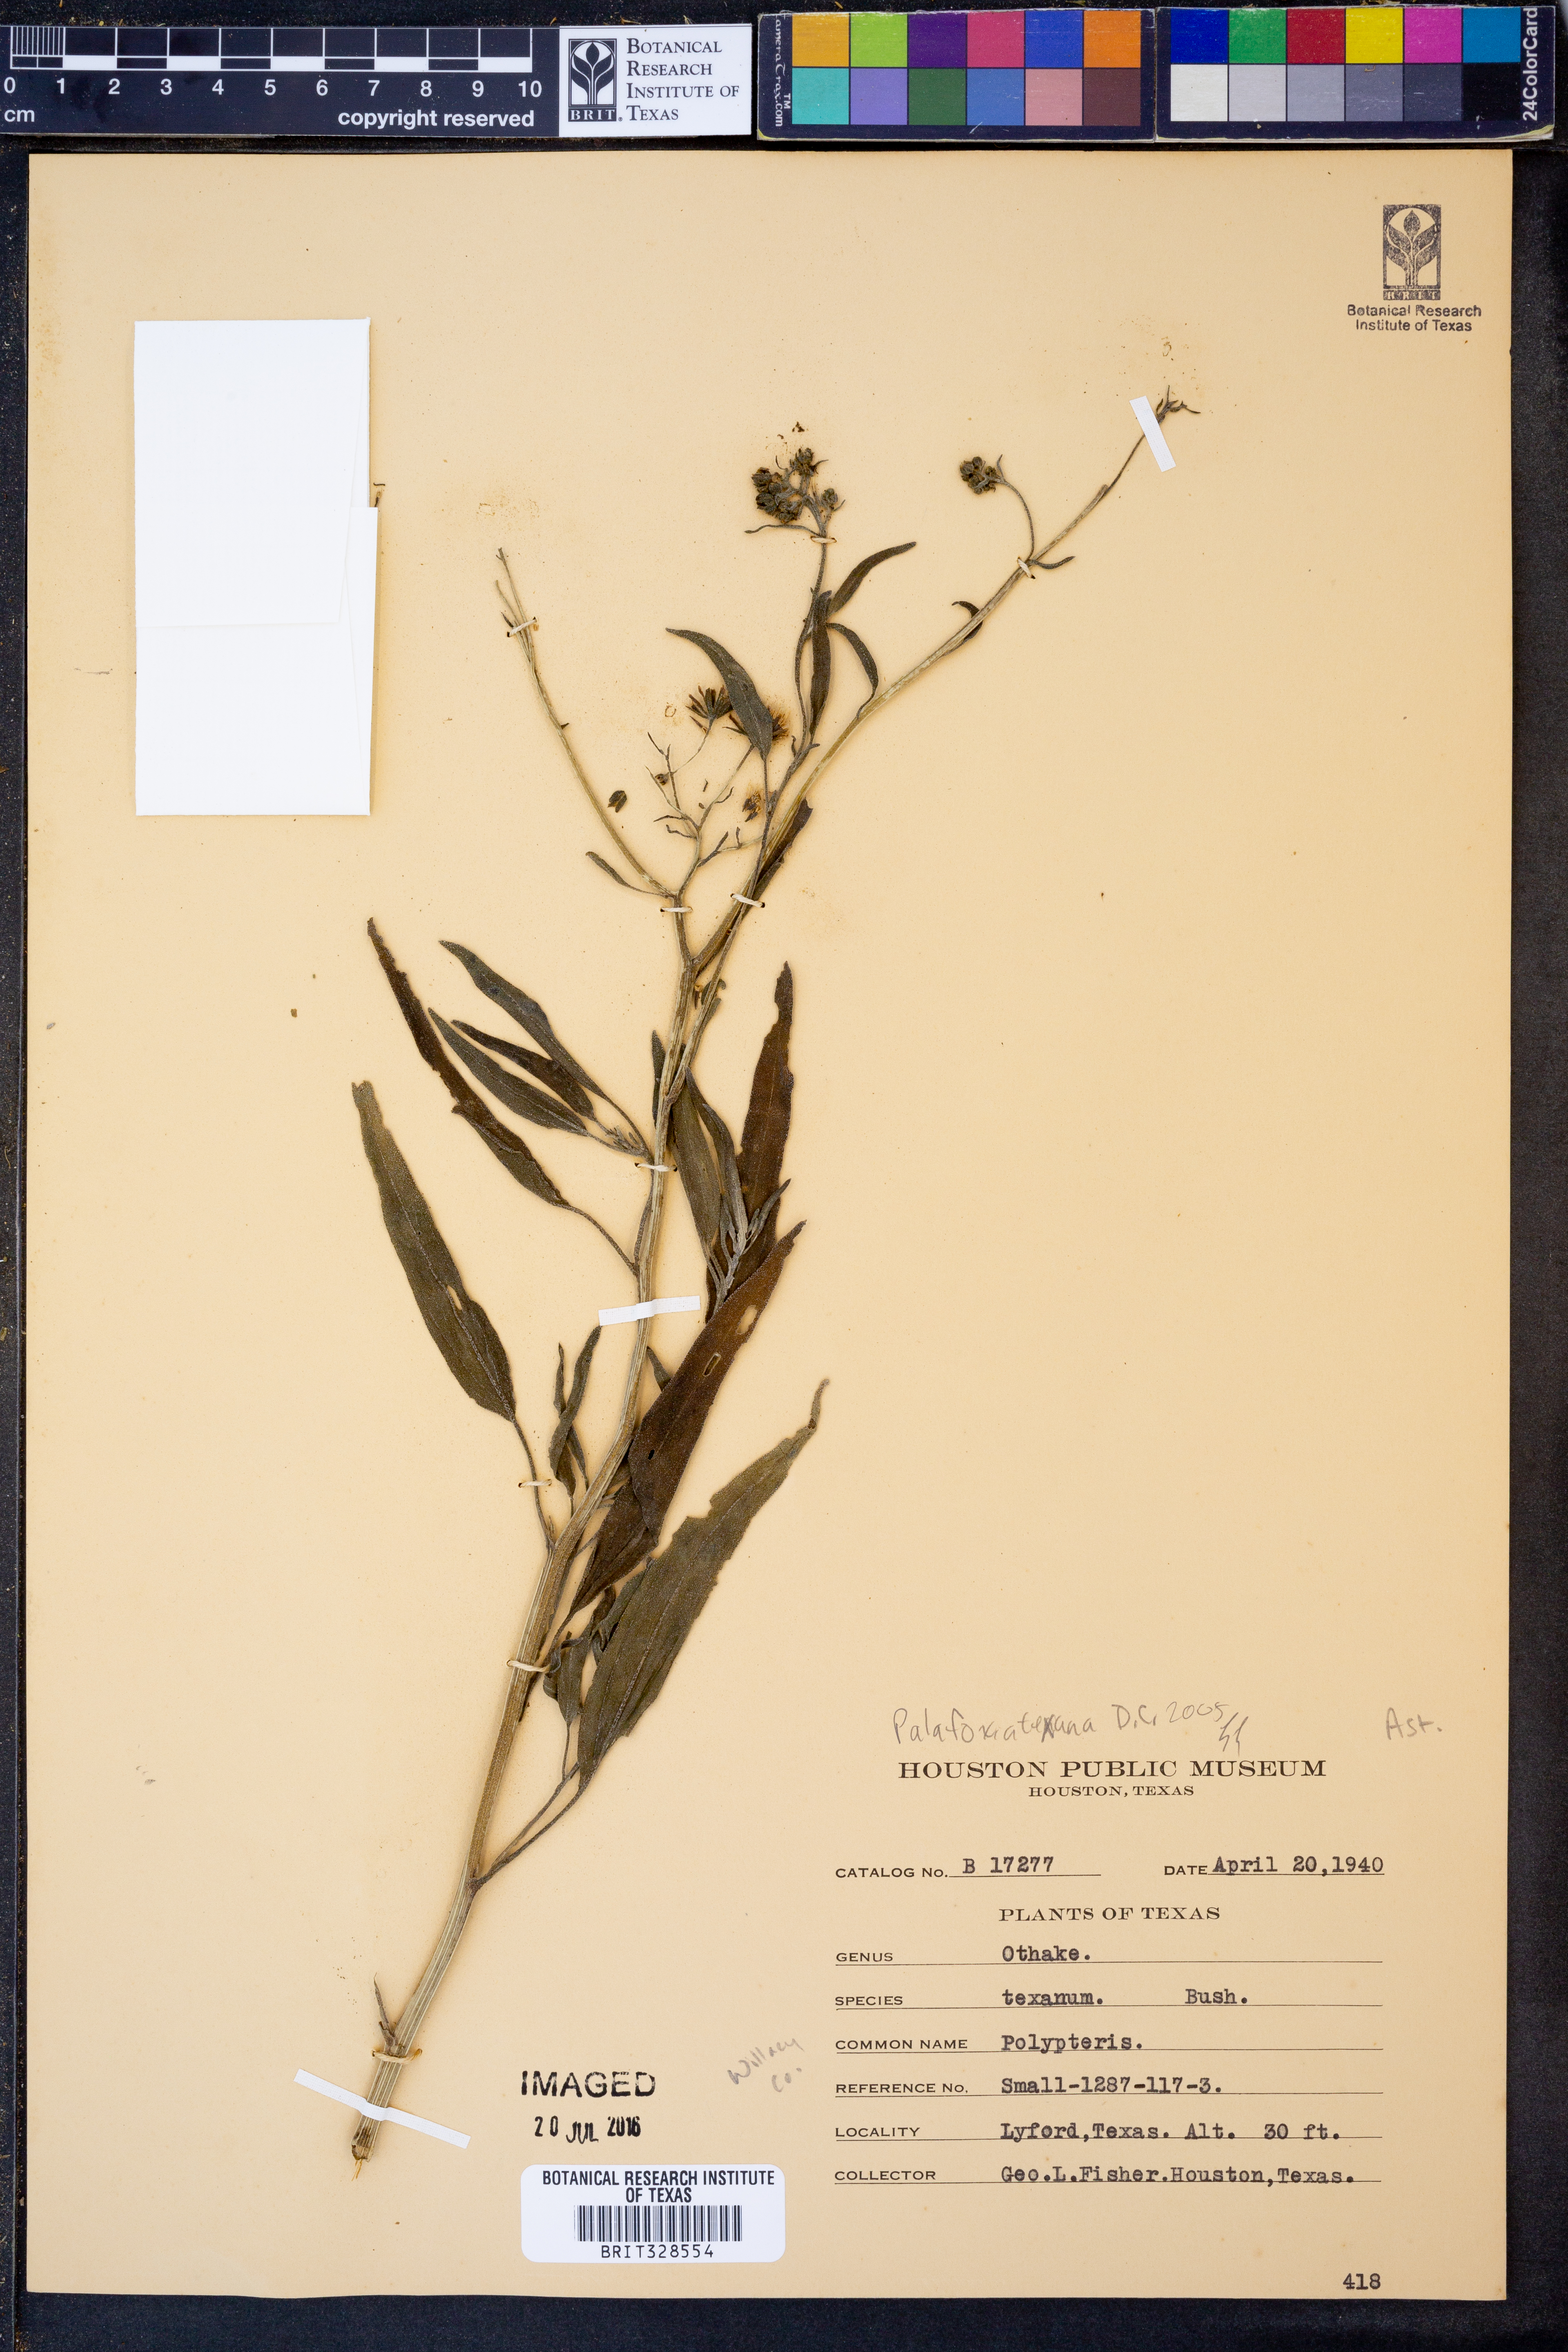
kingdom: Plantae
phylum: Tracheophyta
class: Magnoliopsida
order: Asterales
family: Asteraceae
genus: Palafoxia
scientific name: Palafoxia texana
